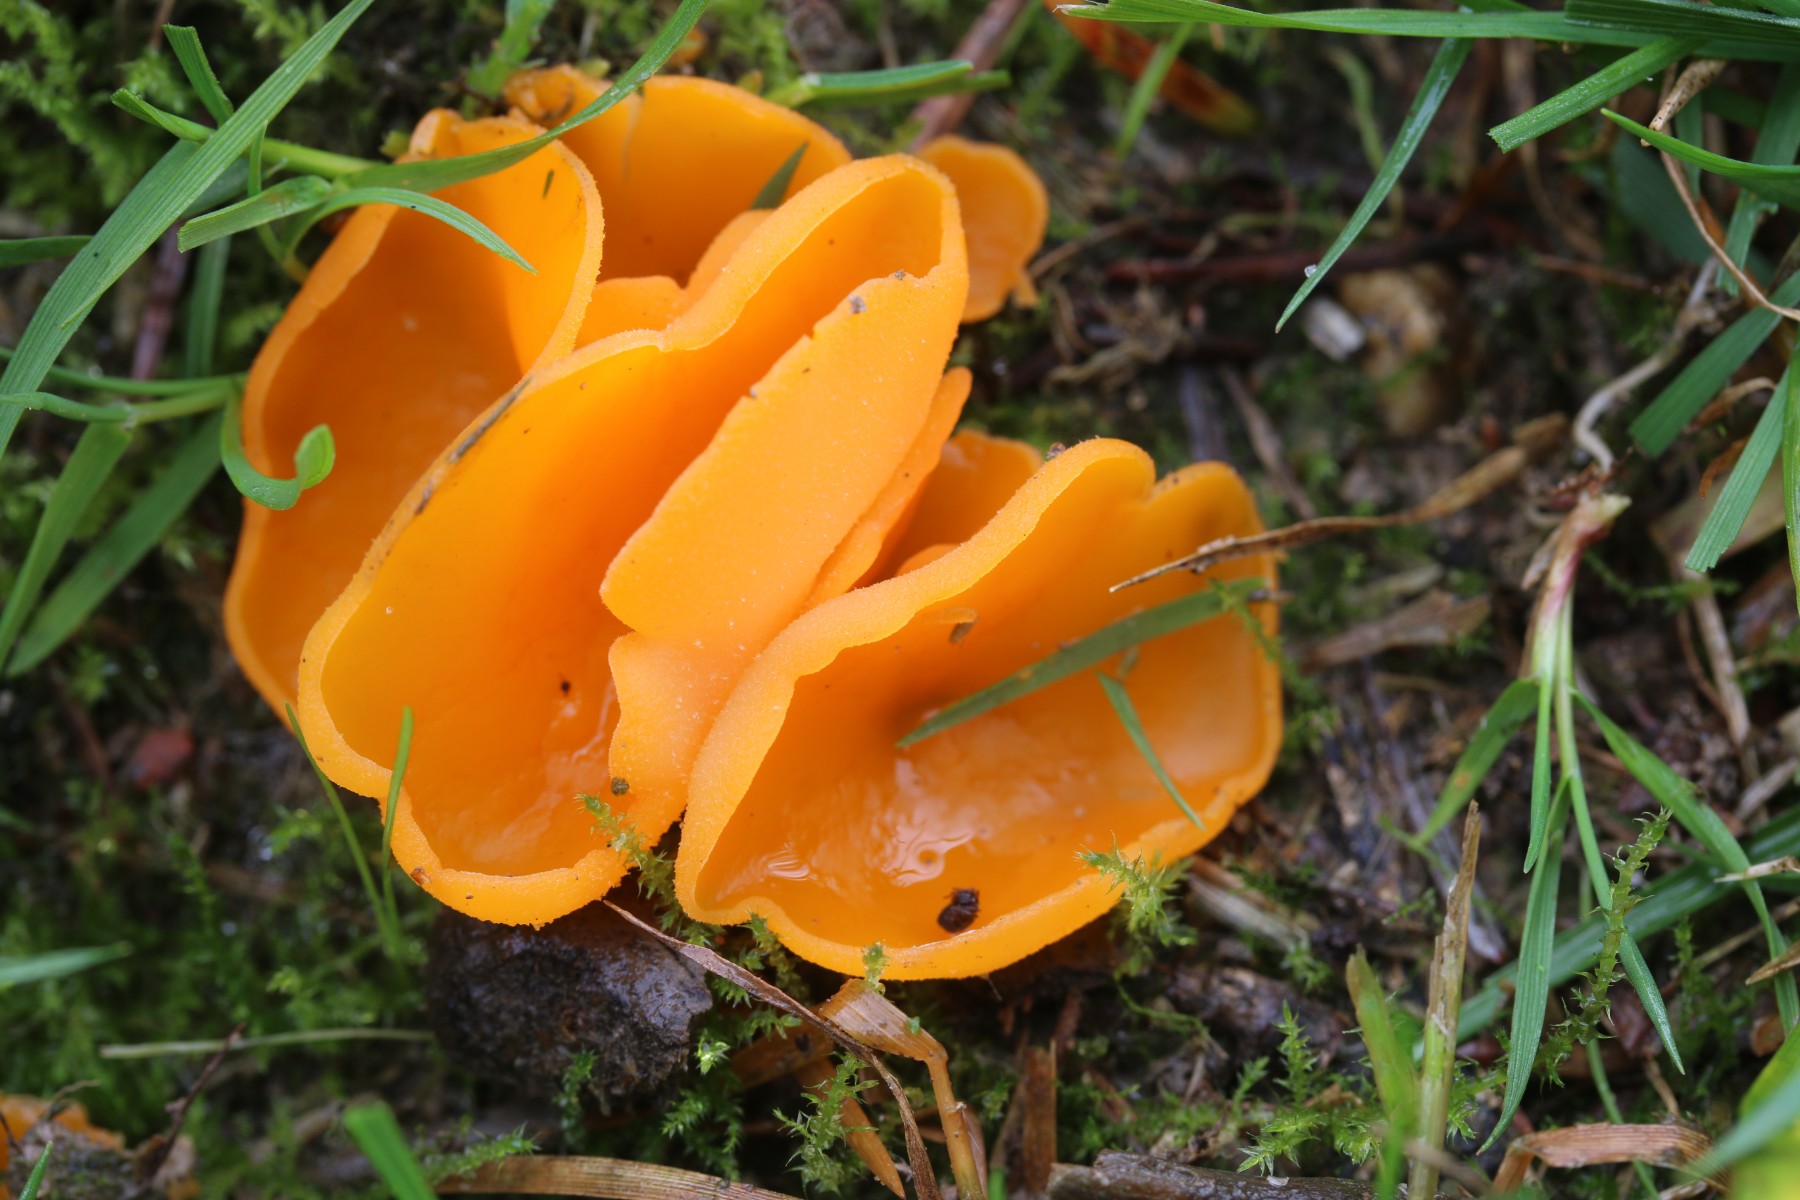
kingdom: Fungi
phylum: Ascomycota
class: Pezizomycetes
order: Pezizales
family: Pyronemataceae
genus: Aleuria
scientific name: Aleuria aurantia
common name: almindelig orangebæger
